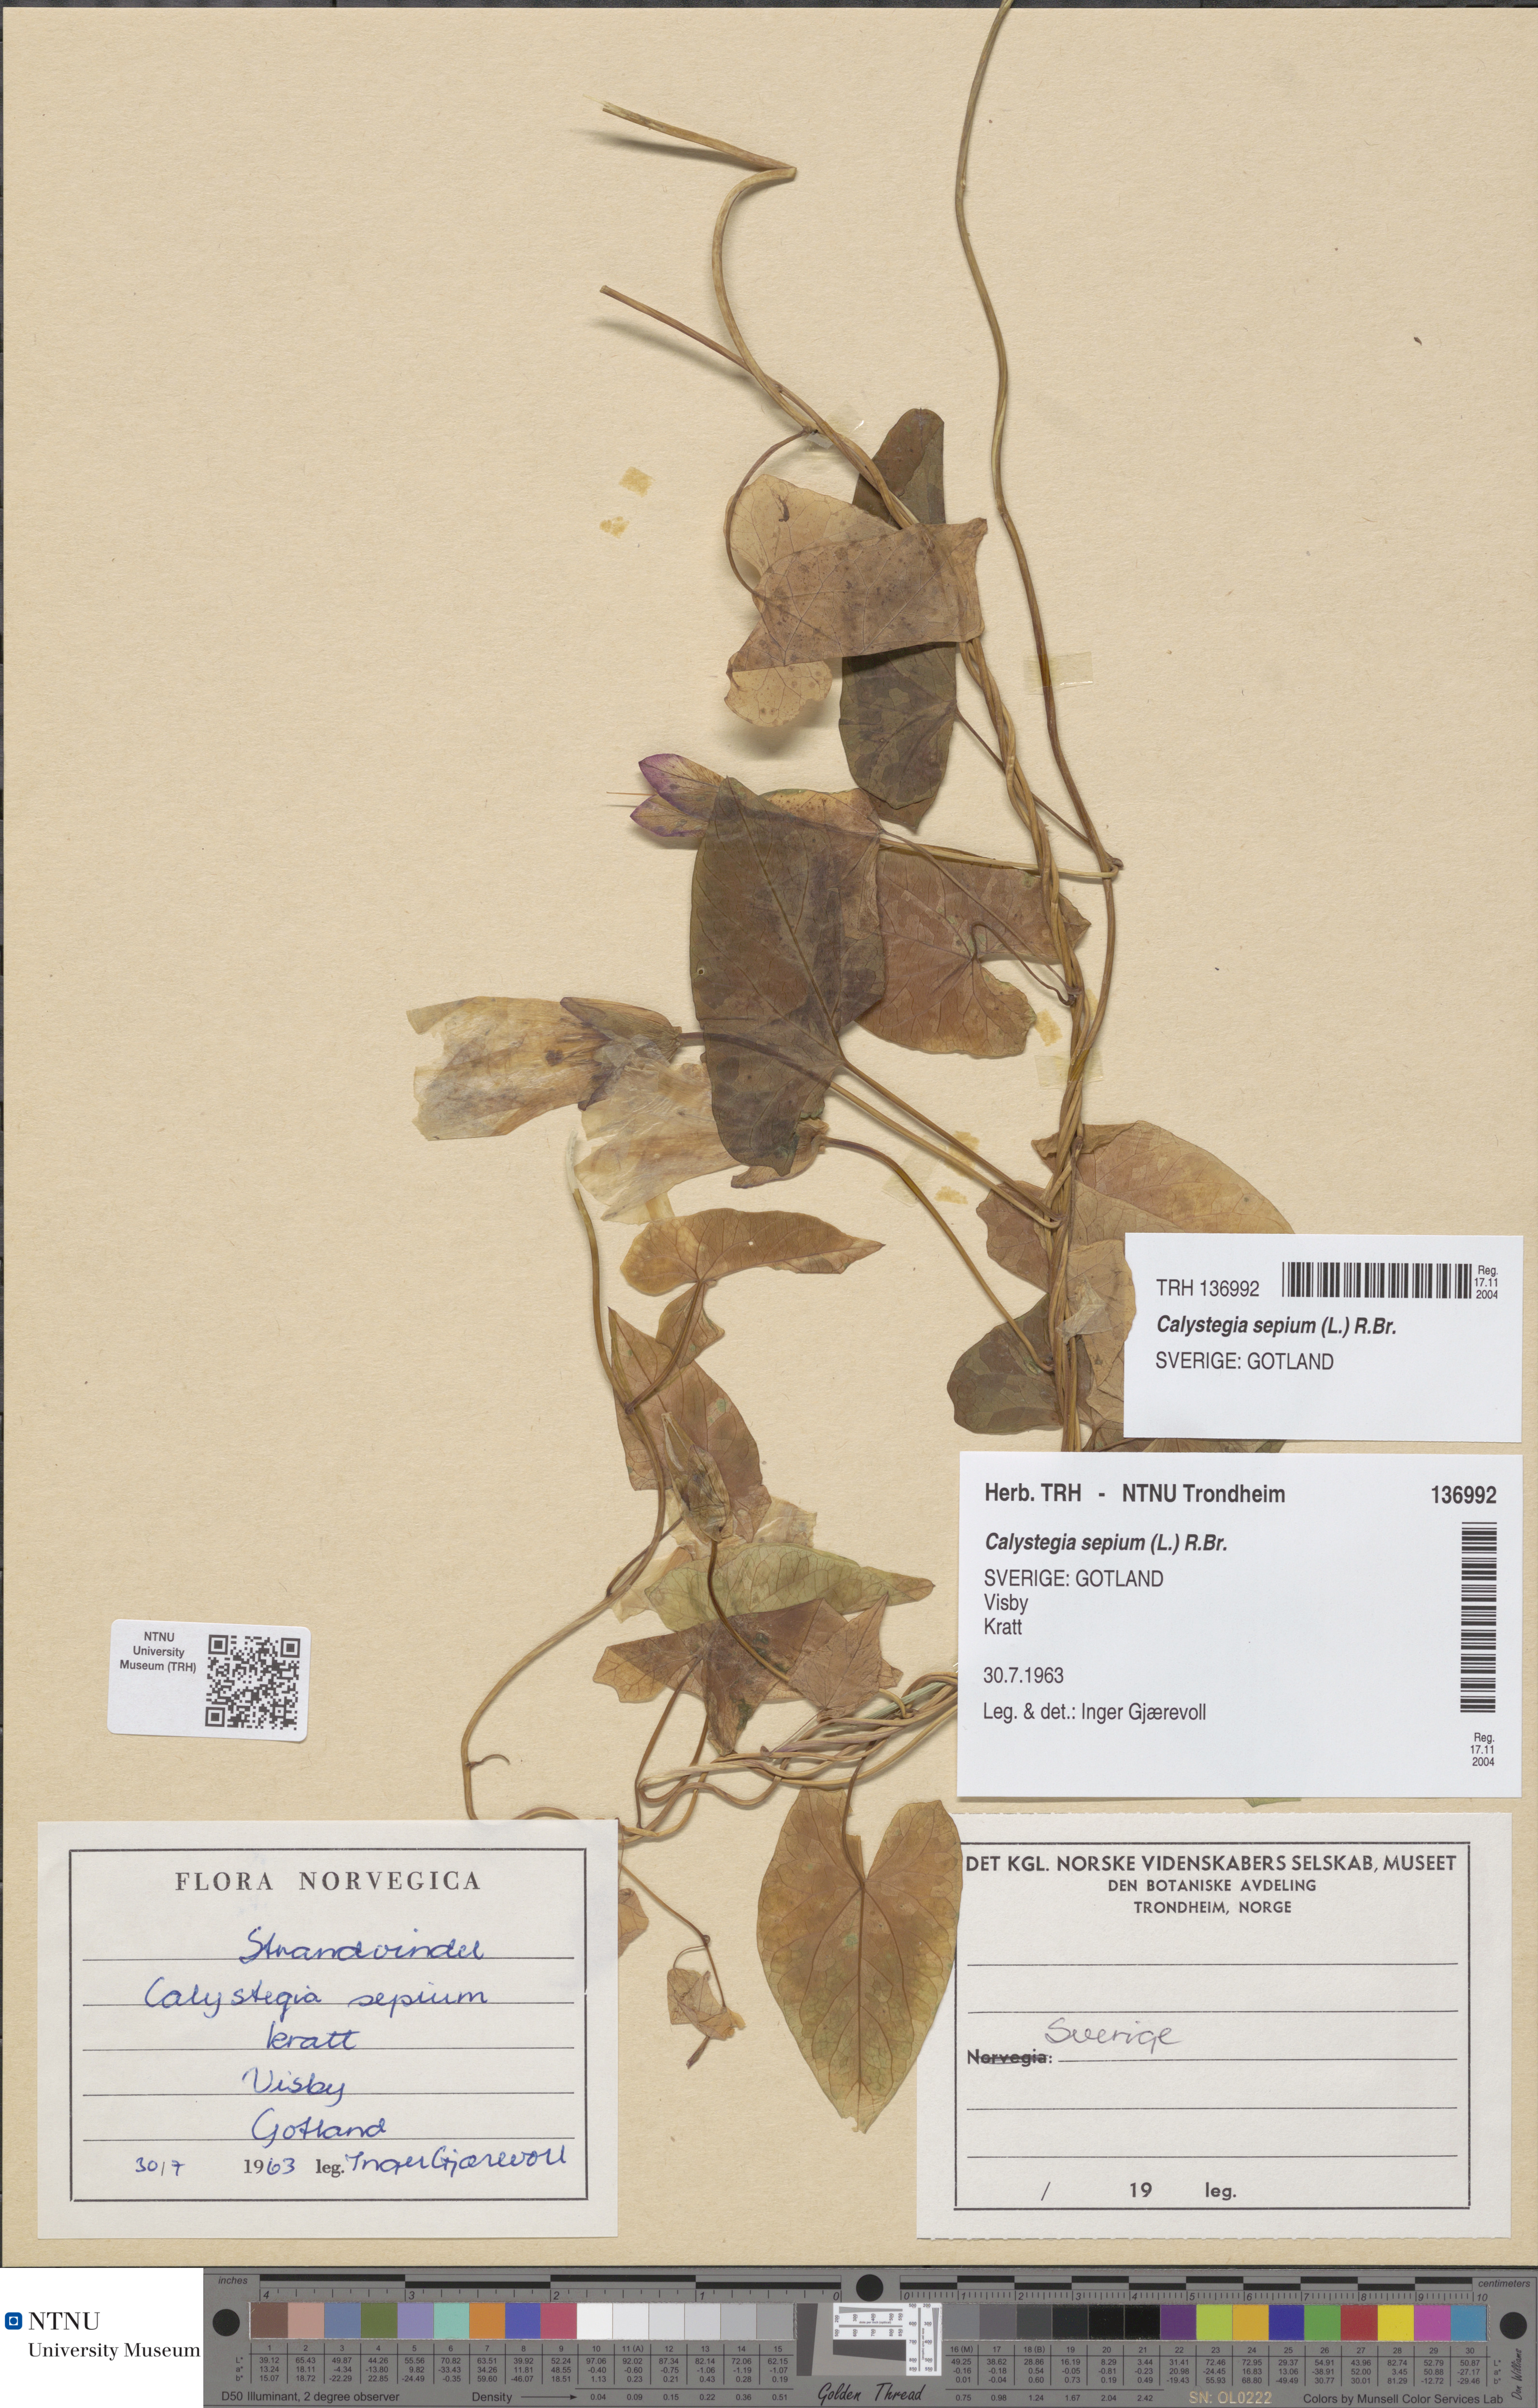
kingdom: Plantae
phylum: Tracheophyta
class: Magnoliopsida
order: Solanales
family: Convolvulaceae
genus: Calystegia
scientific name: Calystegia sepium
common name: Hedge bindweed
